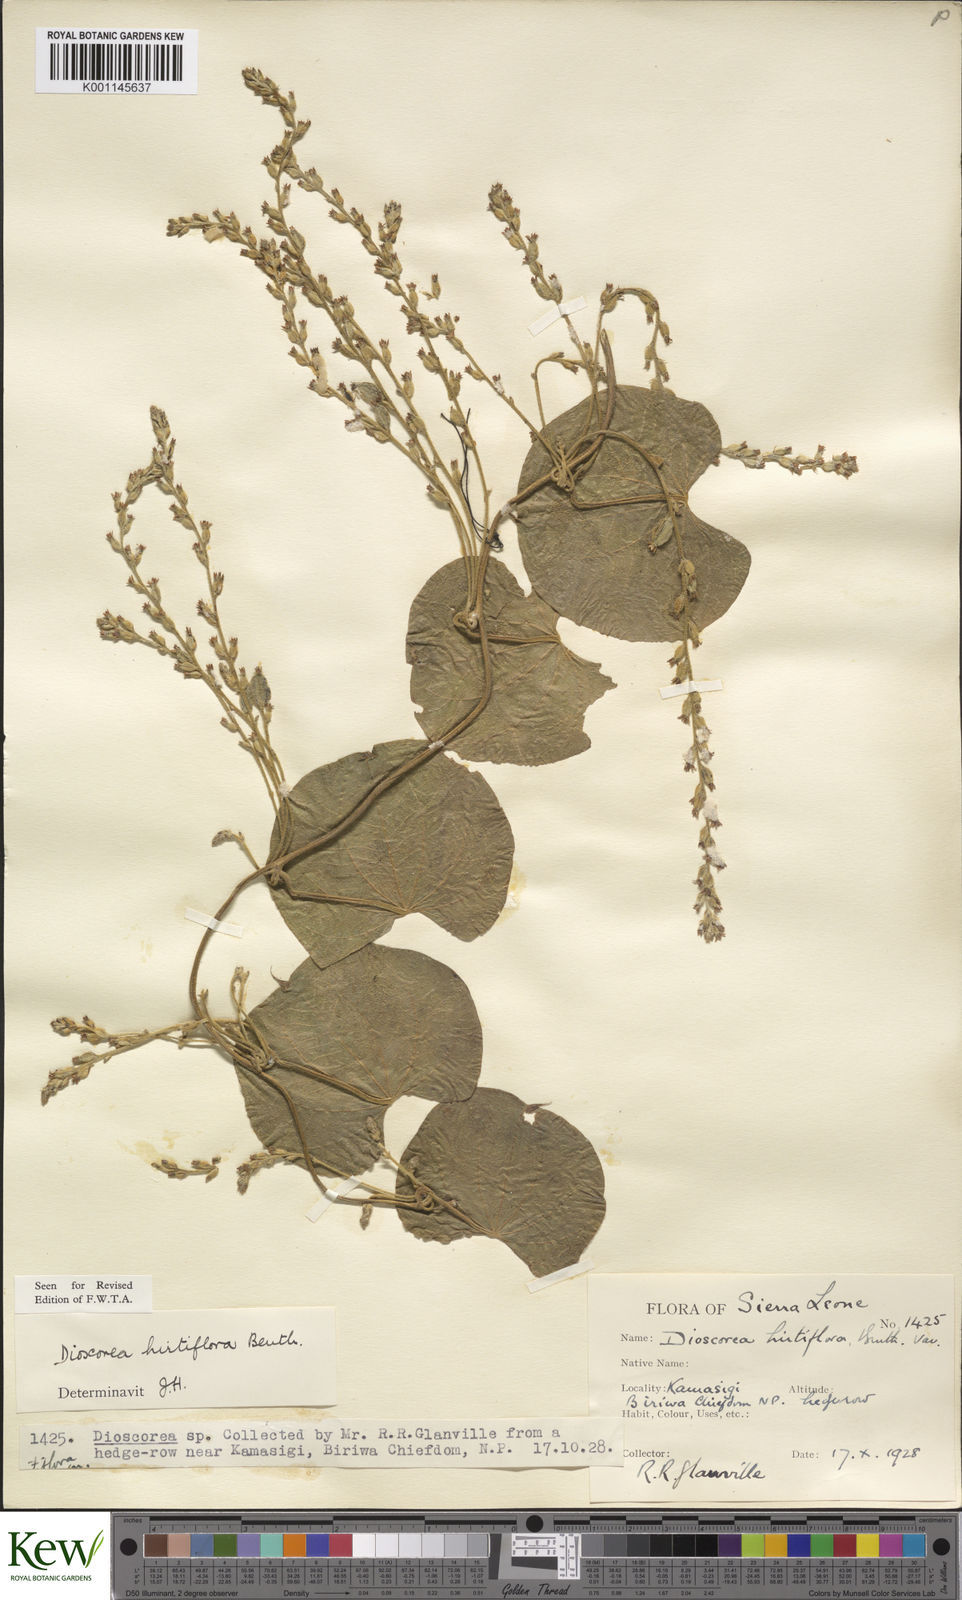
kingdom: Plantae
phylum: Tracheophyta
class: Liliopsida
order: Dioscoreales
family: Dioscoreaceae
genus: Dioscorea
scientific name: Dioscorea hirtiflora
